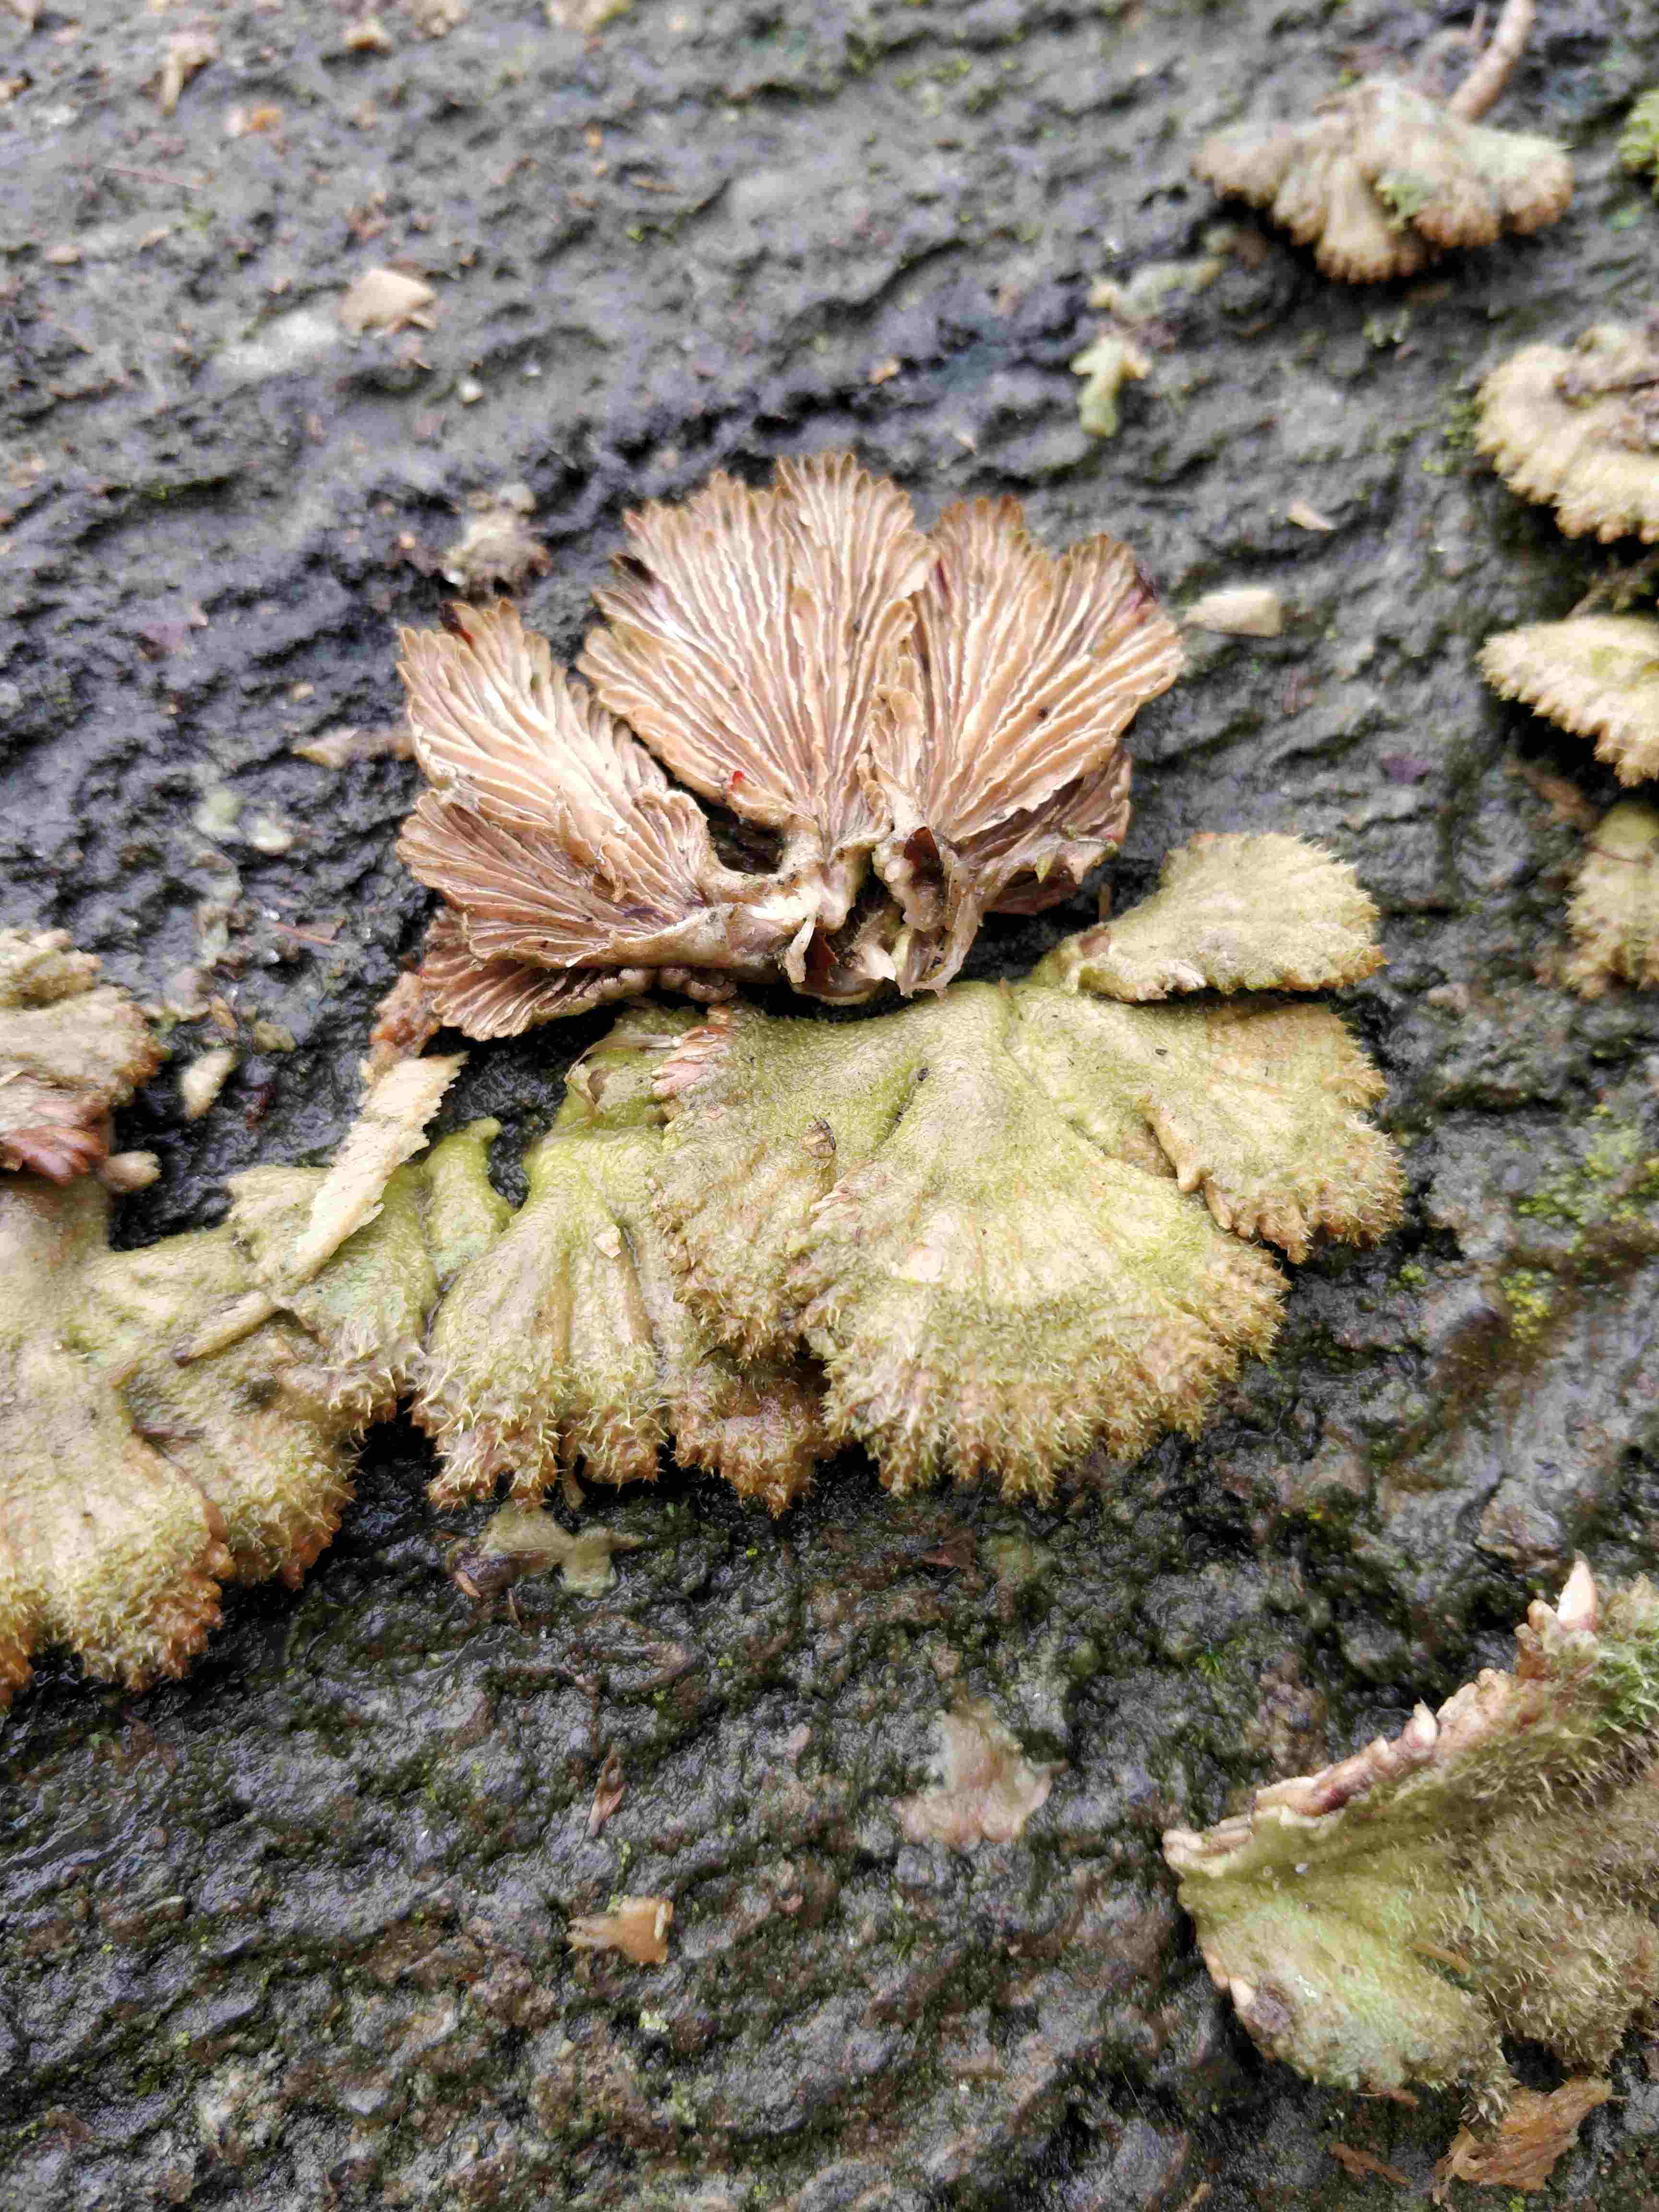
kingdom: Fungi
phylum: Basidiomycota
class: Agaricomycetes
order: Agaricales
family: Schizophyllaceae
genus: Schizophyllum
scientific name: Schizophyllum commune
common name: kløvblad
